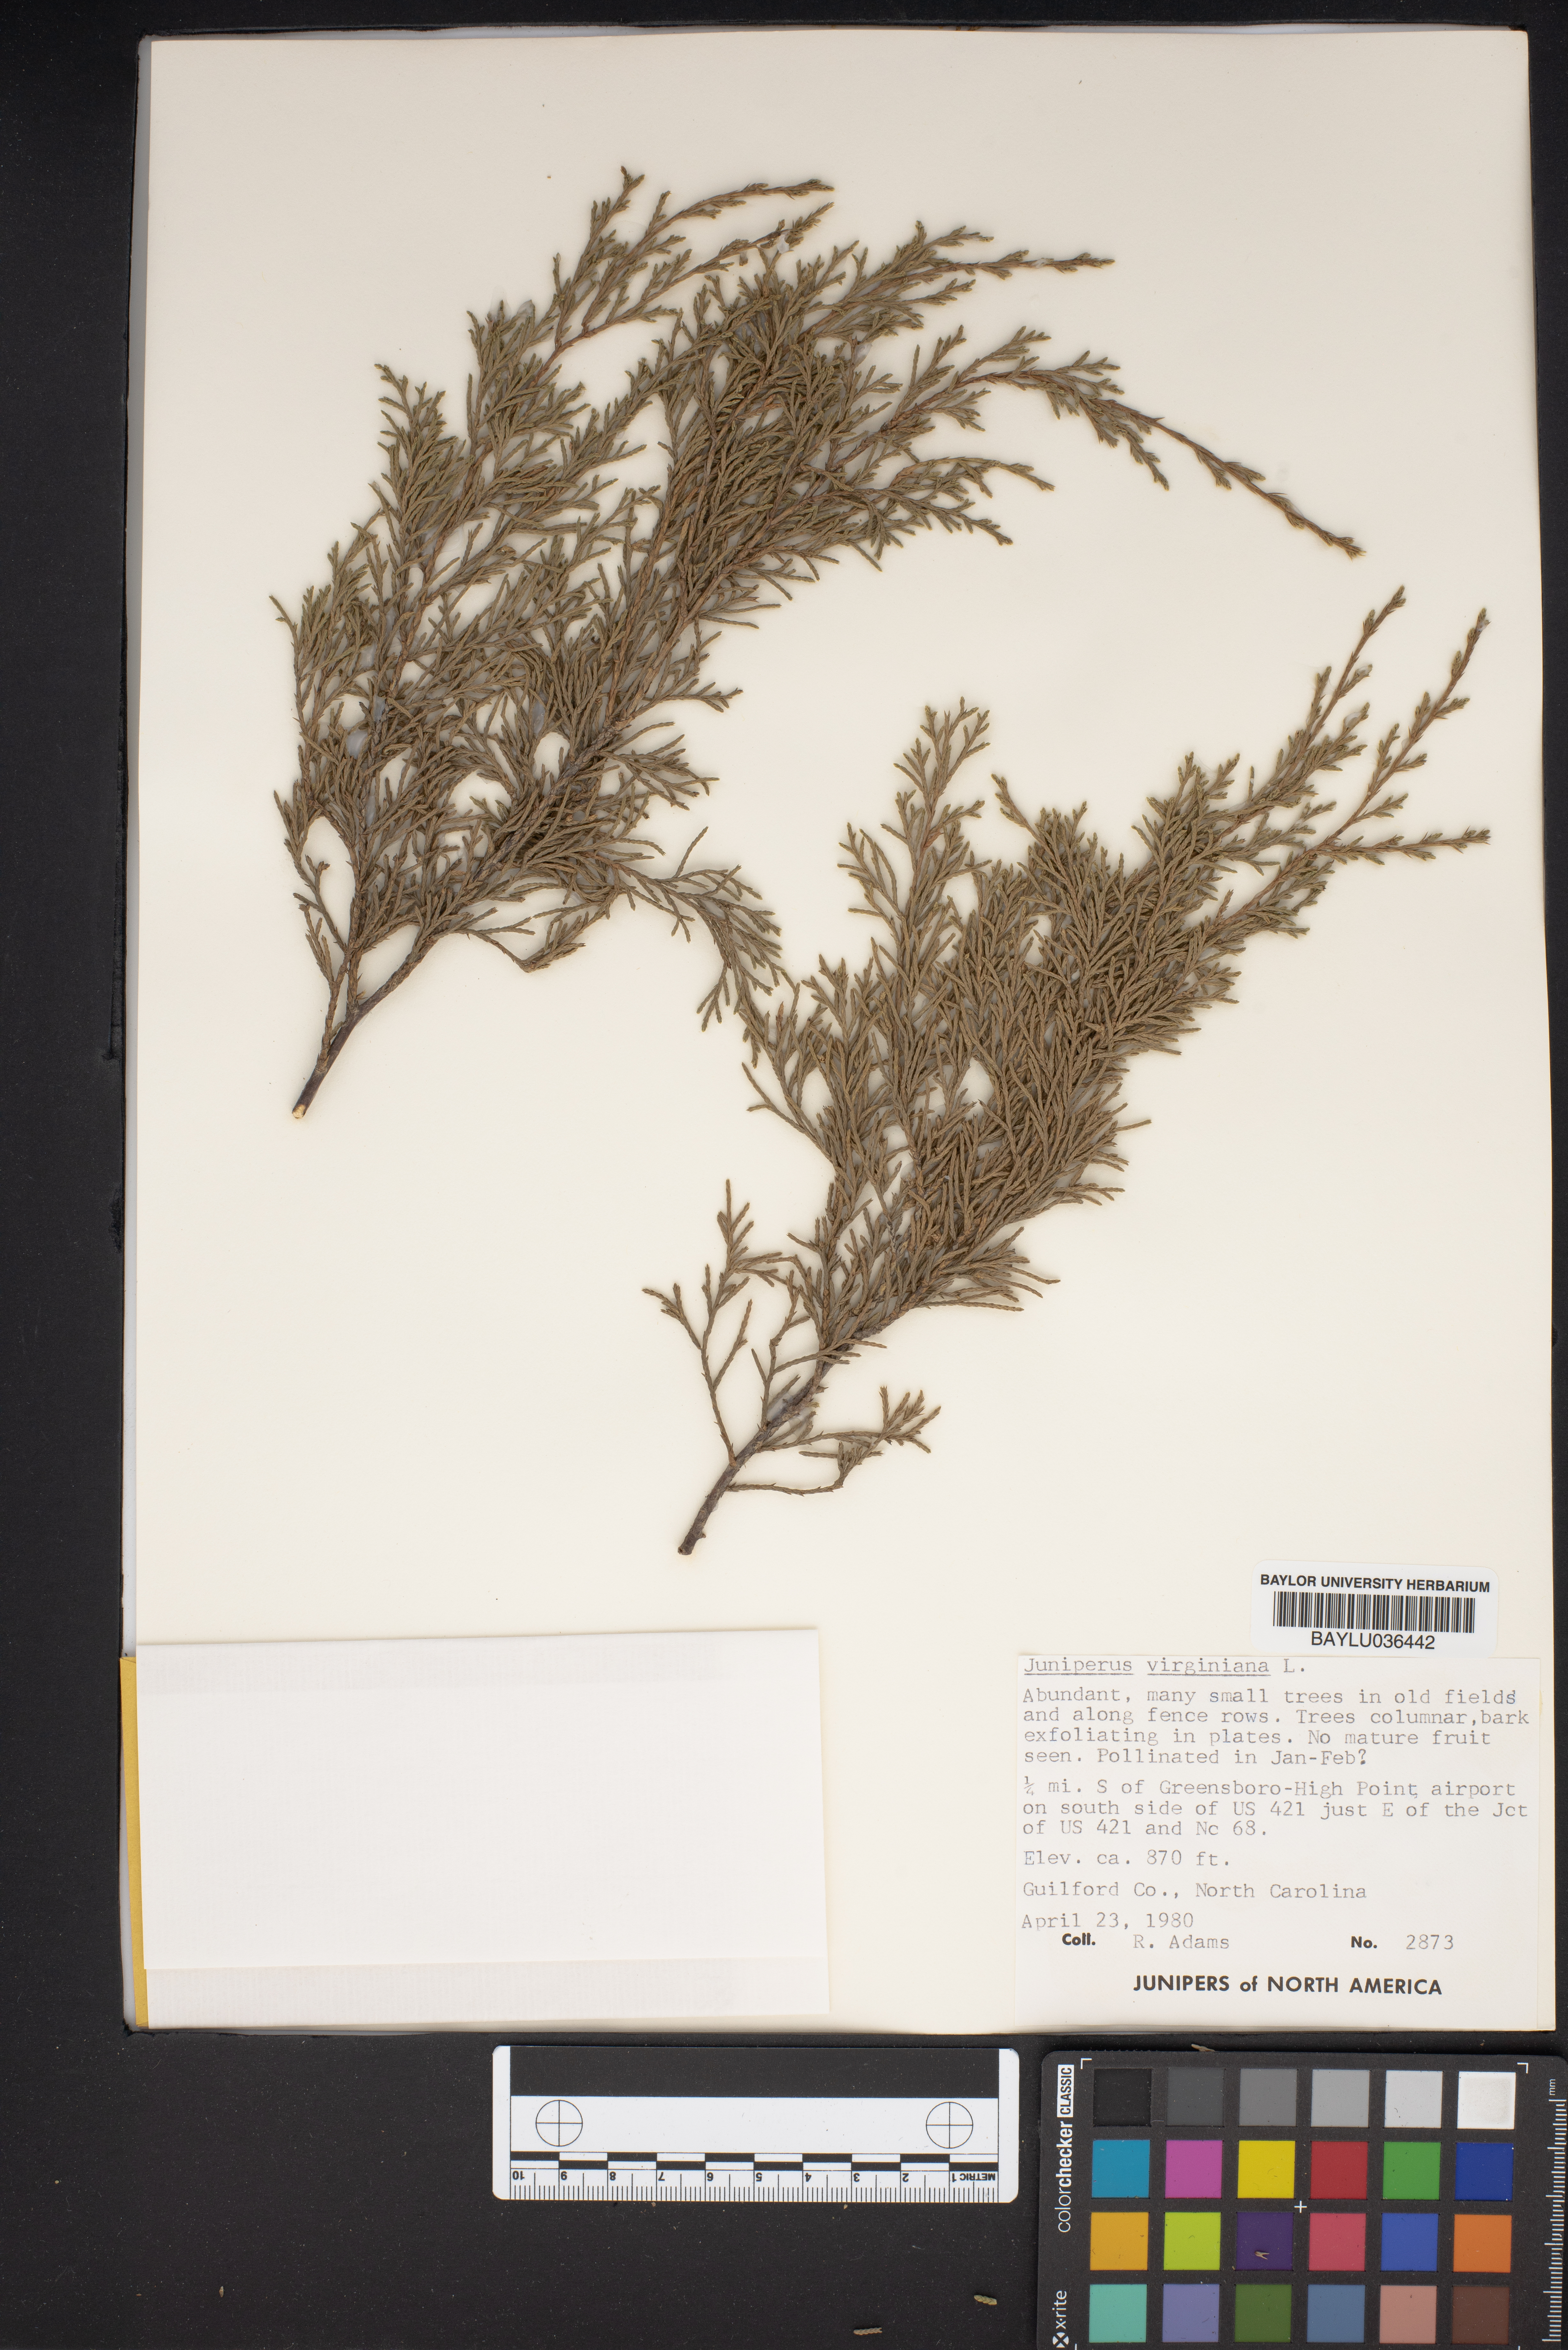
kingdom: Plantae
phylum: Tracheophyta
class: Pinopsida
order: Pinales
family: Cupressaceae
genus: Juniperus
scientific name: Juniperus virginiana
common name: Red juniper
